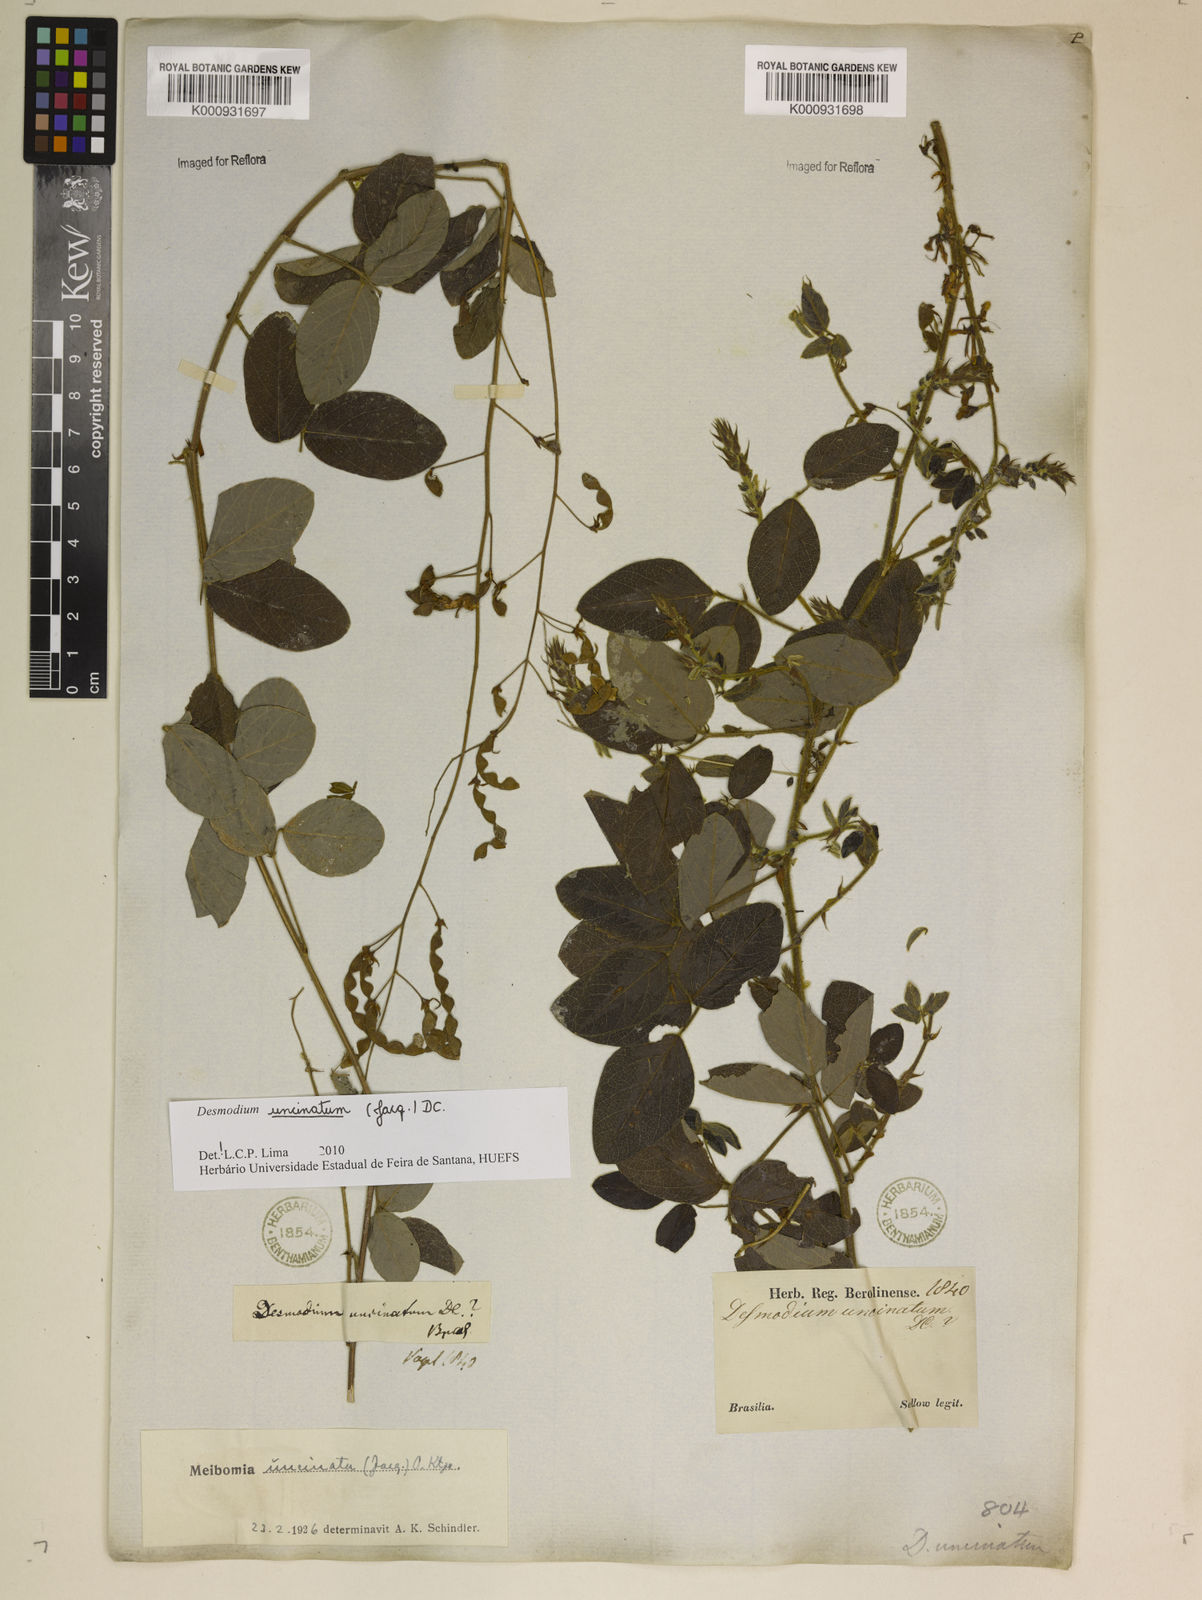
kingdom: Plantae
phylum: Tracheophyta
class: Magnoliopsida
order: Fabales
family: Fabaceae
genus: Desmodium
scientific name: Desmodium uncinatum
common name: Silverleaf desmodium
